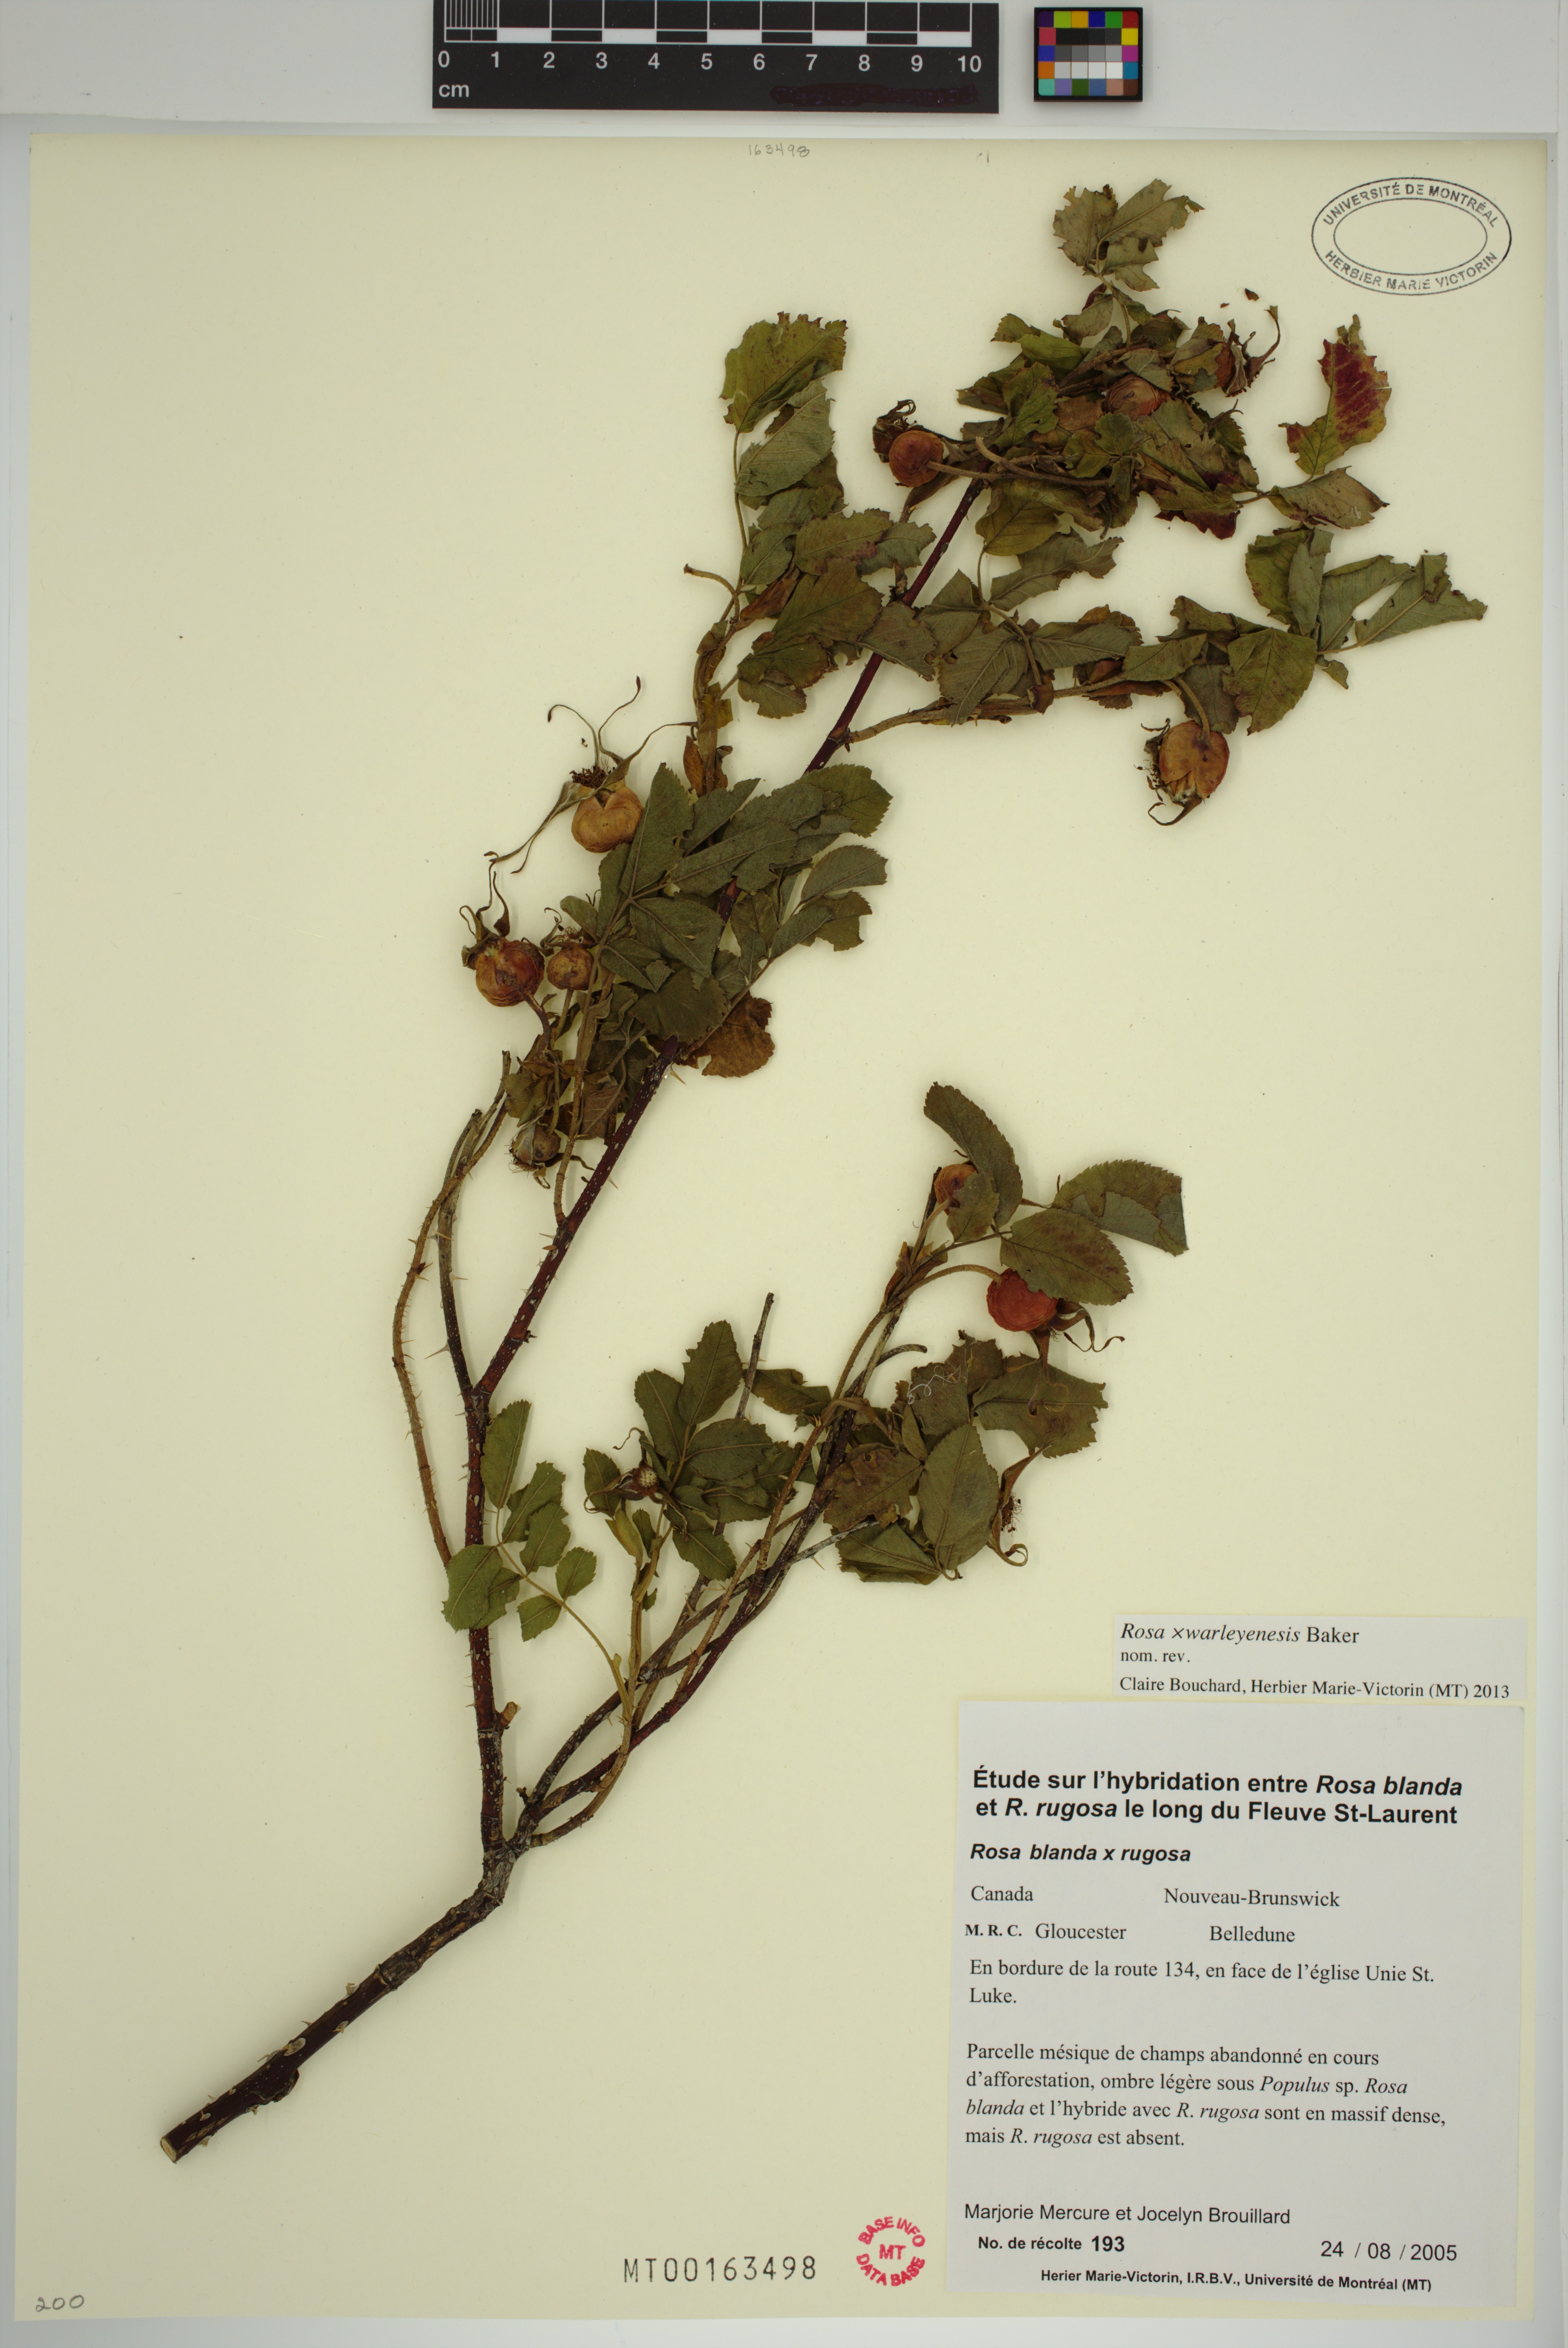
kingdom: Plantae
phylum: Tracheophyta
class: Magnoliopsida
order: Rosales
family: Rosaceae
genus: Rosa
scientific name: Rosa warleyensis
